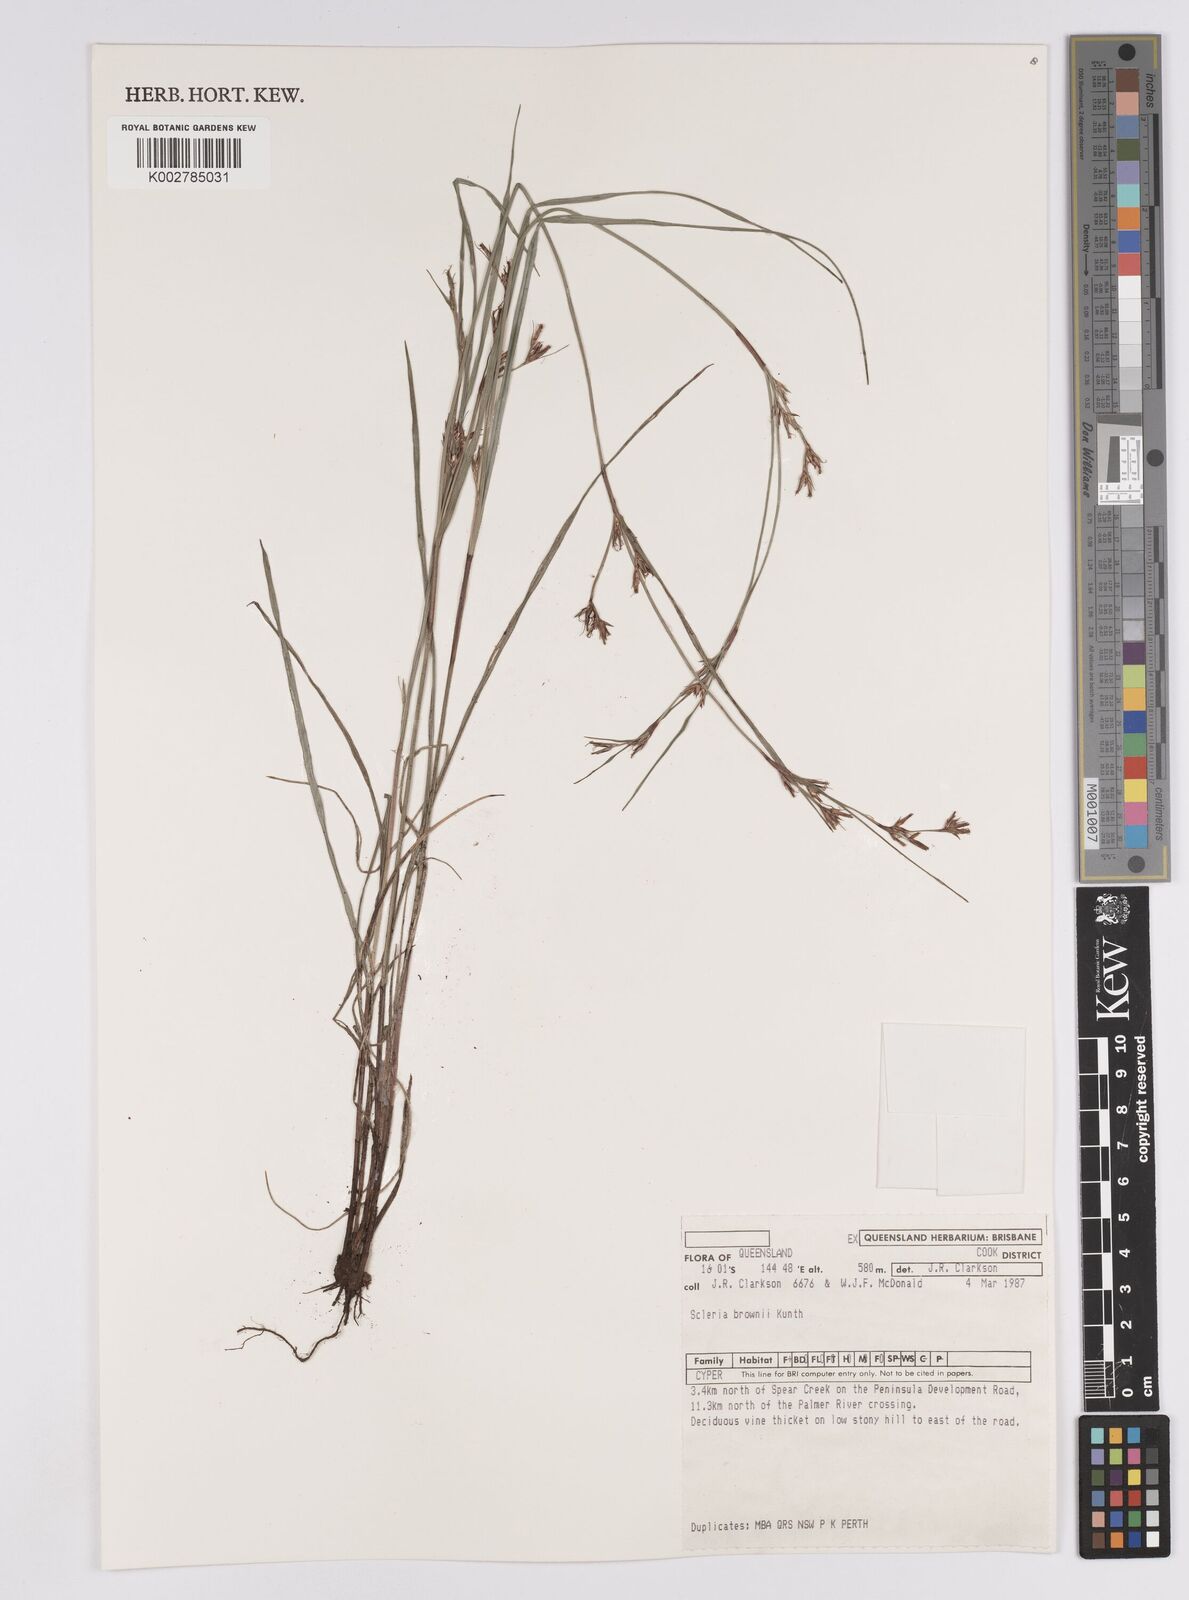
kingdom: Plantae
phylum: Tracheophyta
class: Liliopsida
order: Poales
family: Cyperaceae
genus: Scleria
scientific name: Scleria brownii
